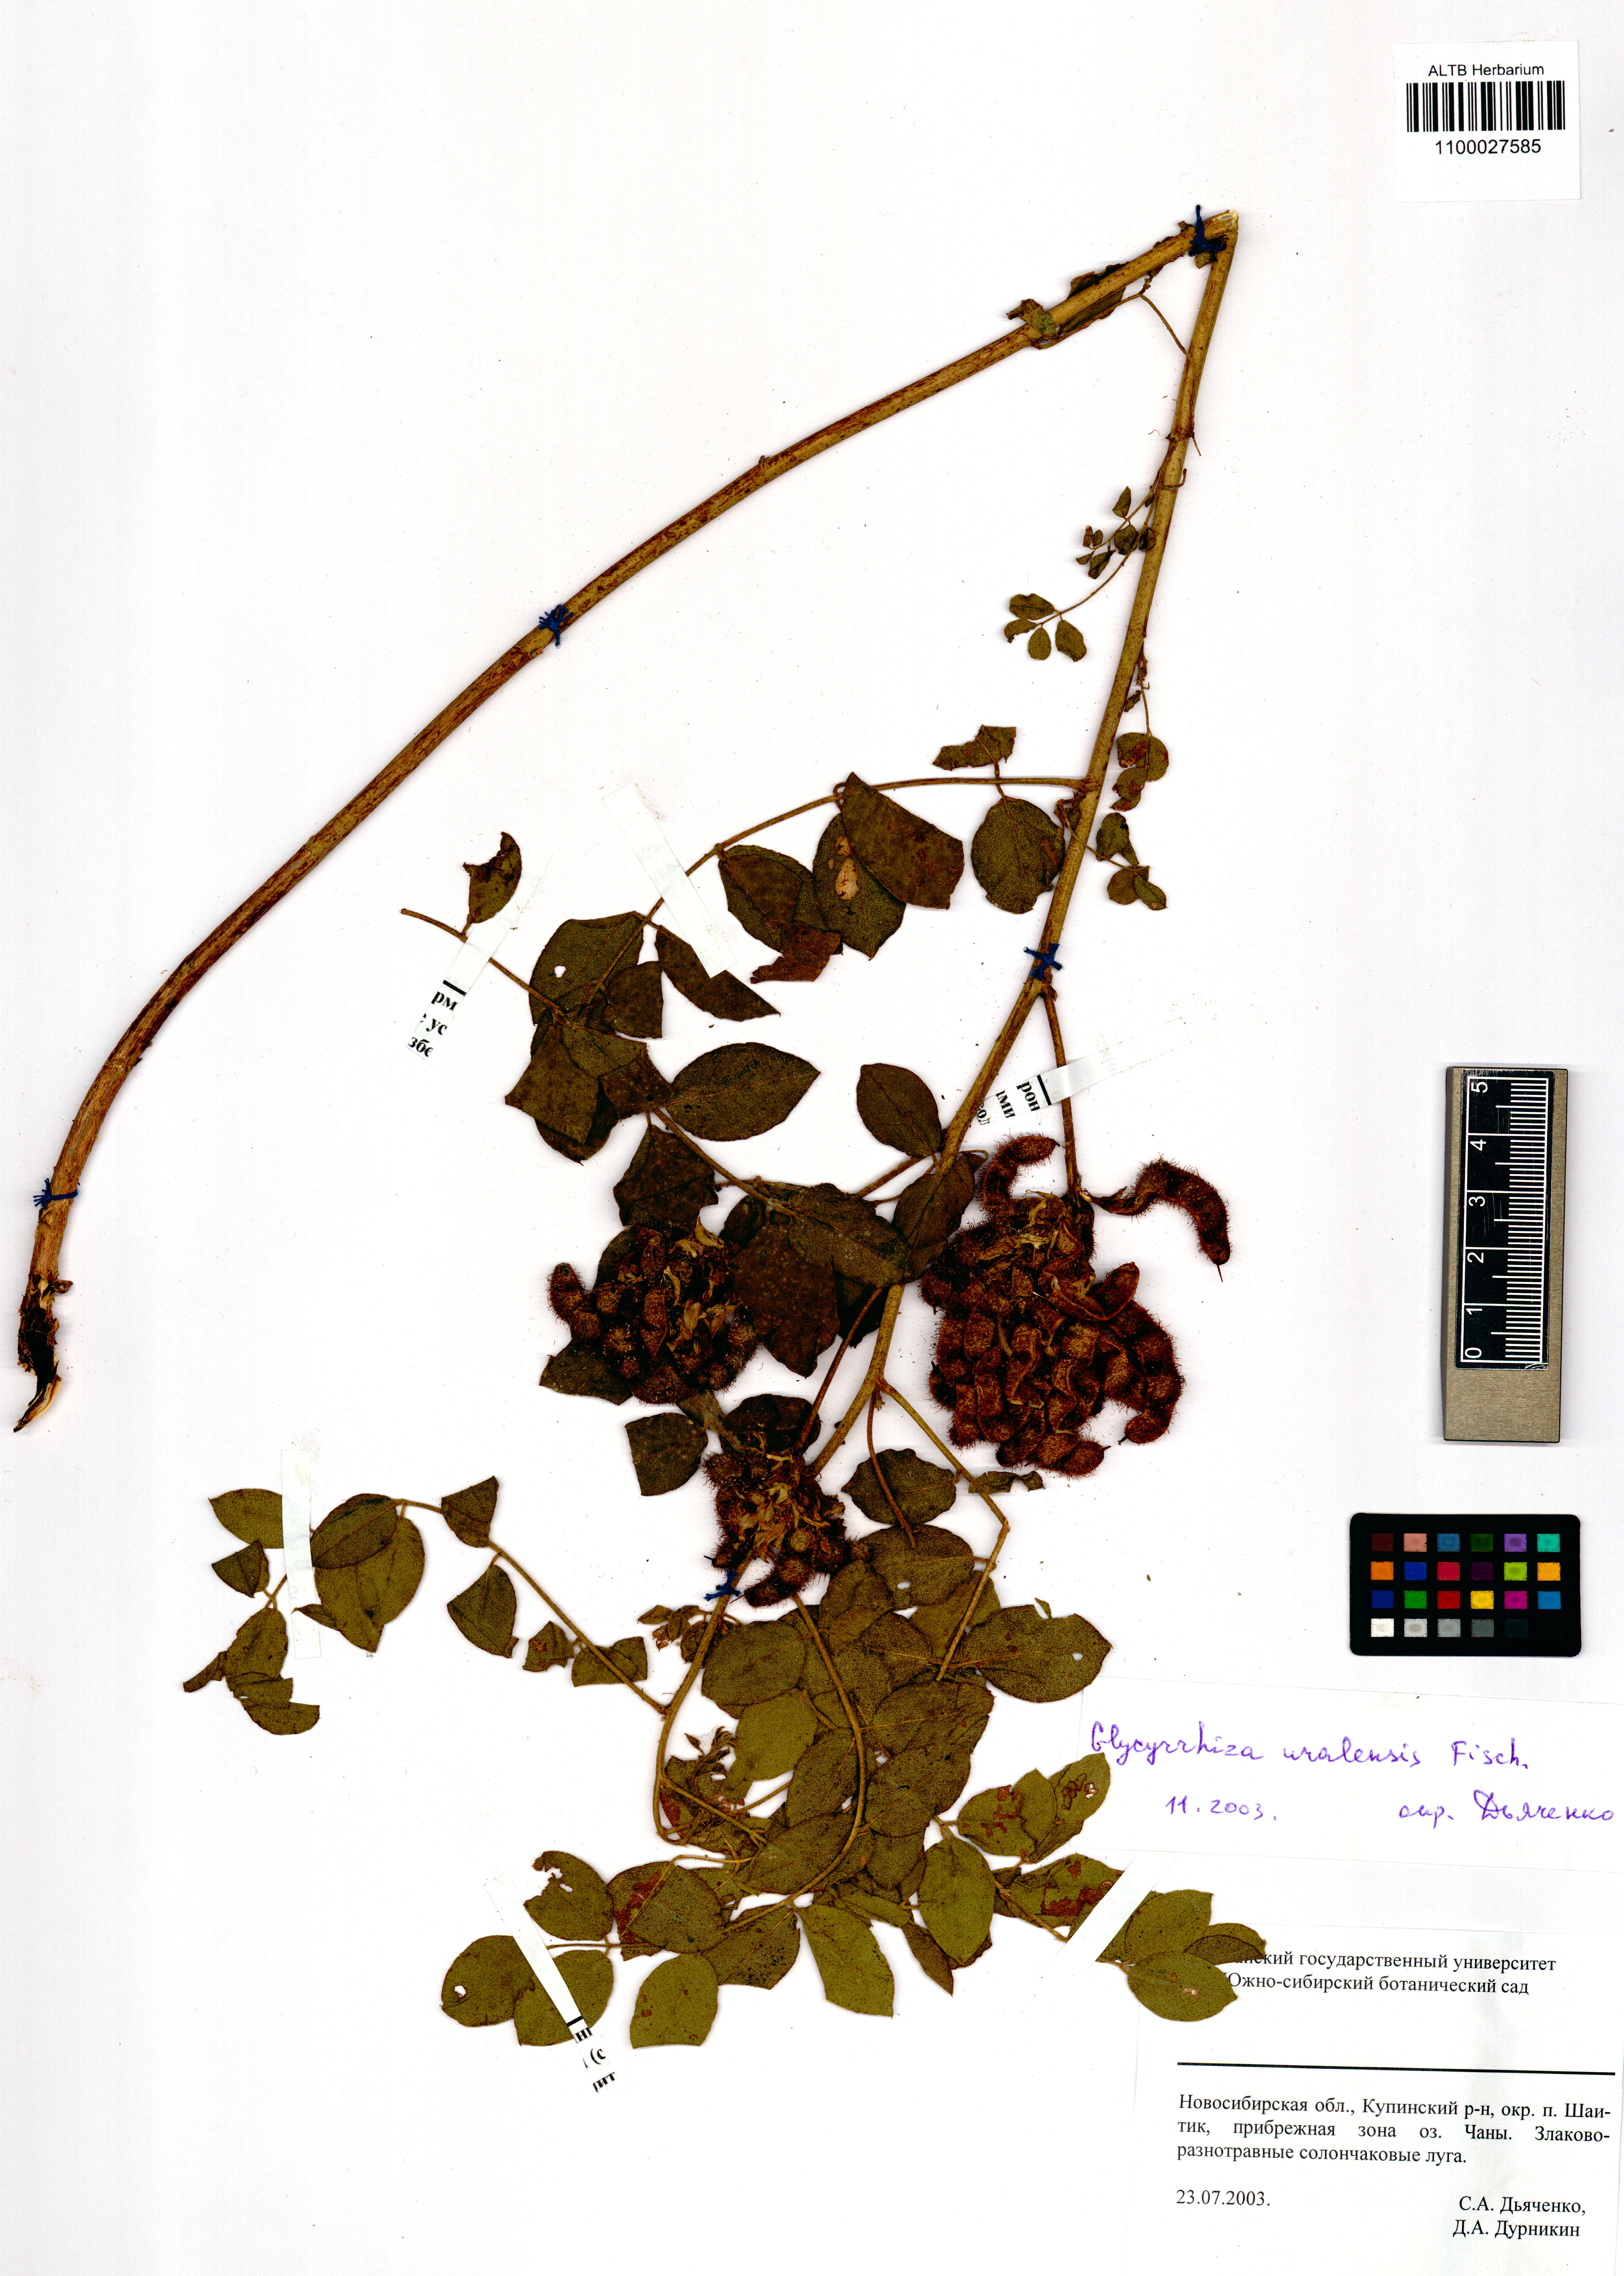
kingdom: Plantae
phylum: Tracheophyta
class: Magnoliopsida
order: Fabales
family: Fabaceae
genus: Glycyrrhiza
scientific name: Glycyrrhiza uralensis
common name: Chinese licorice
